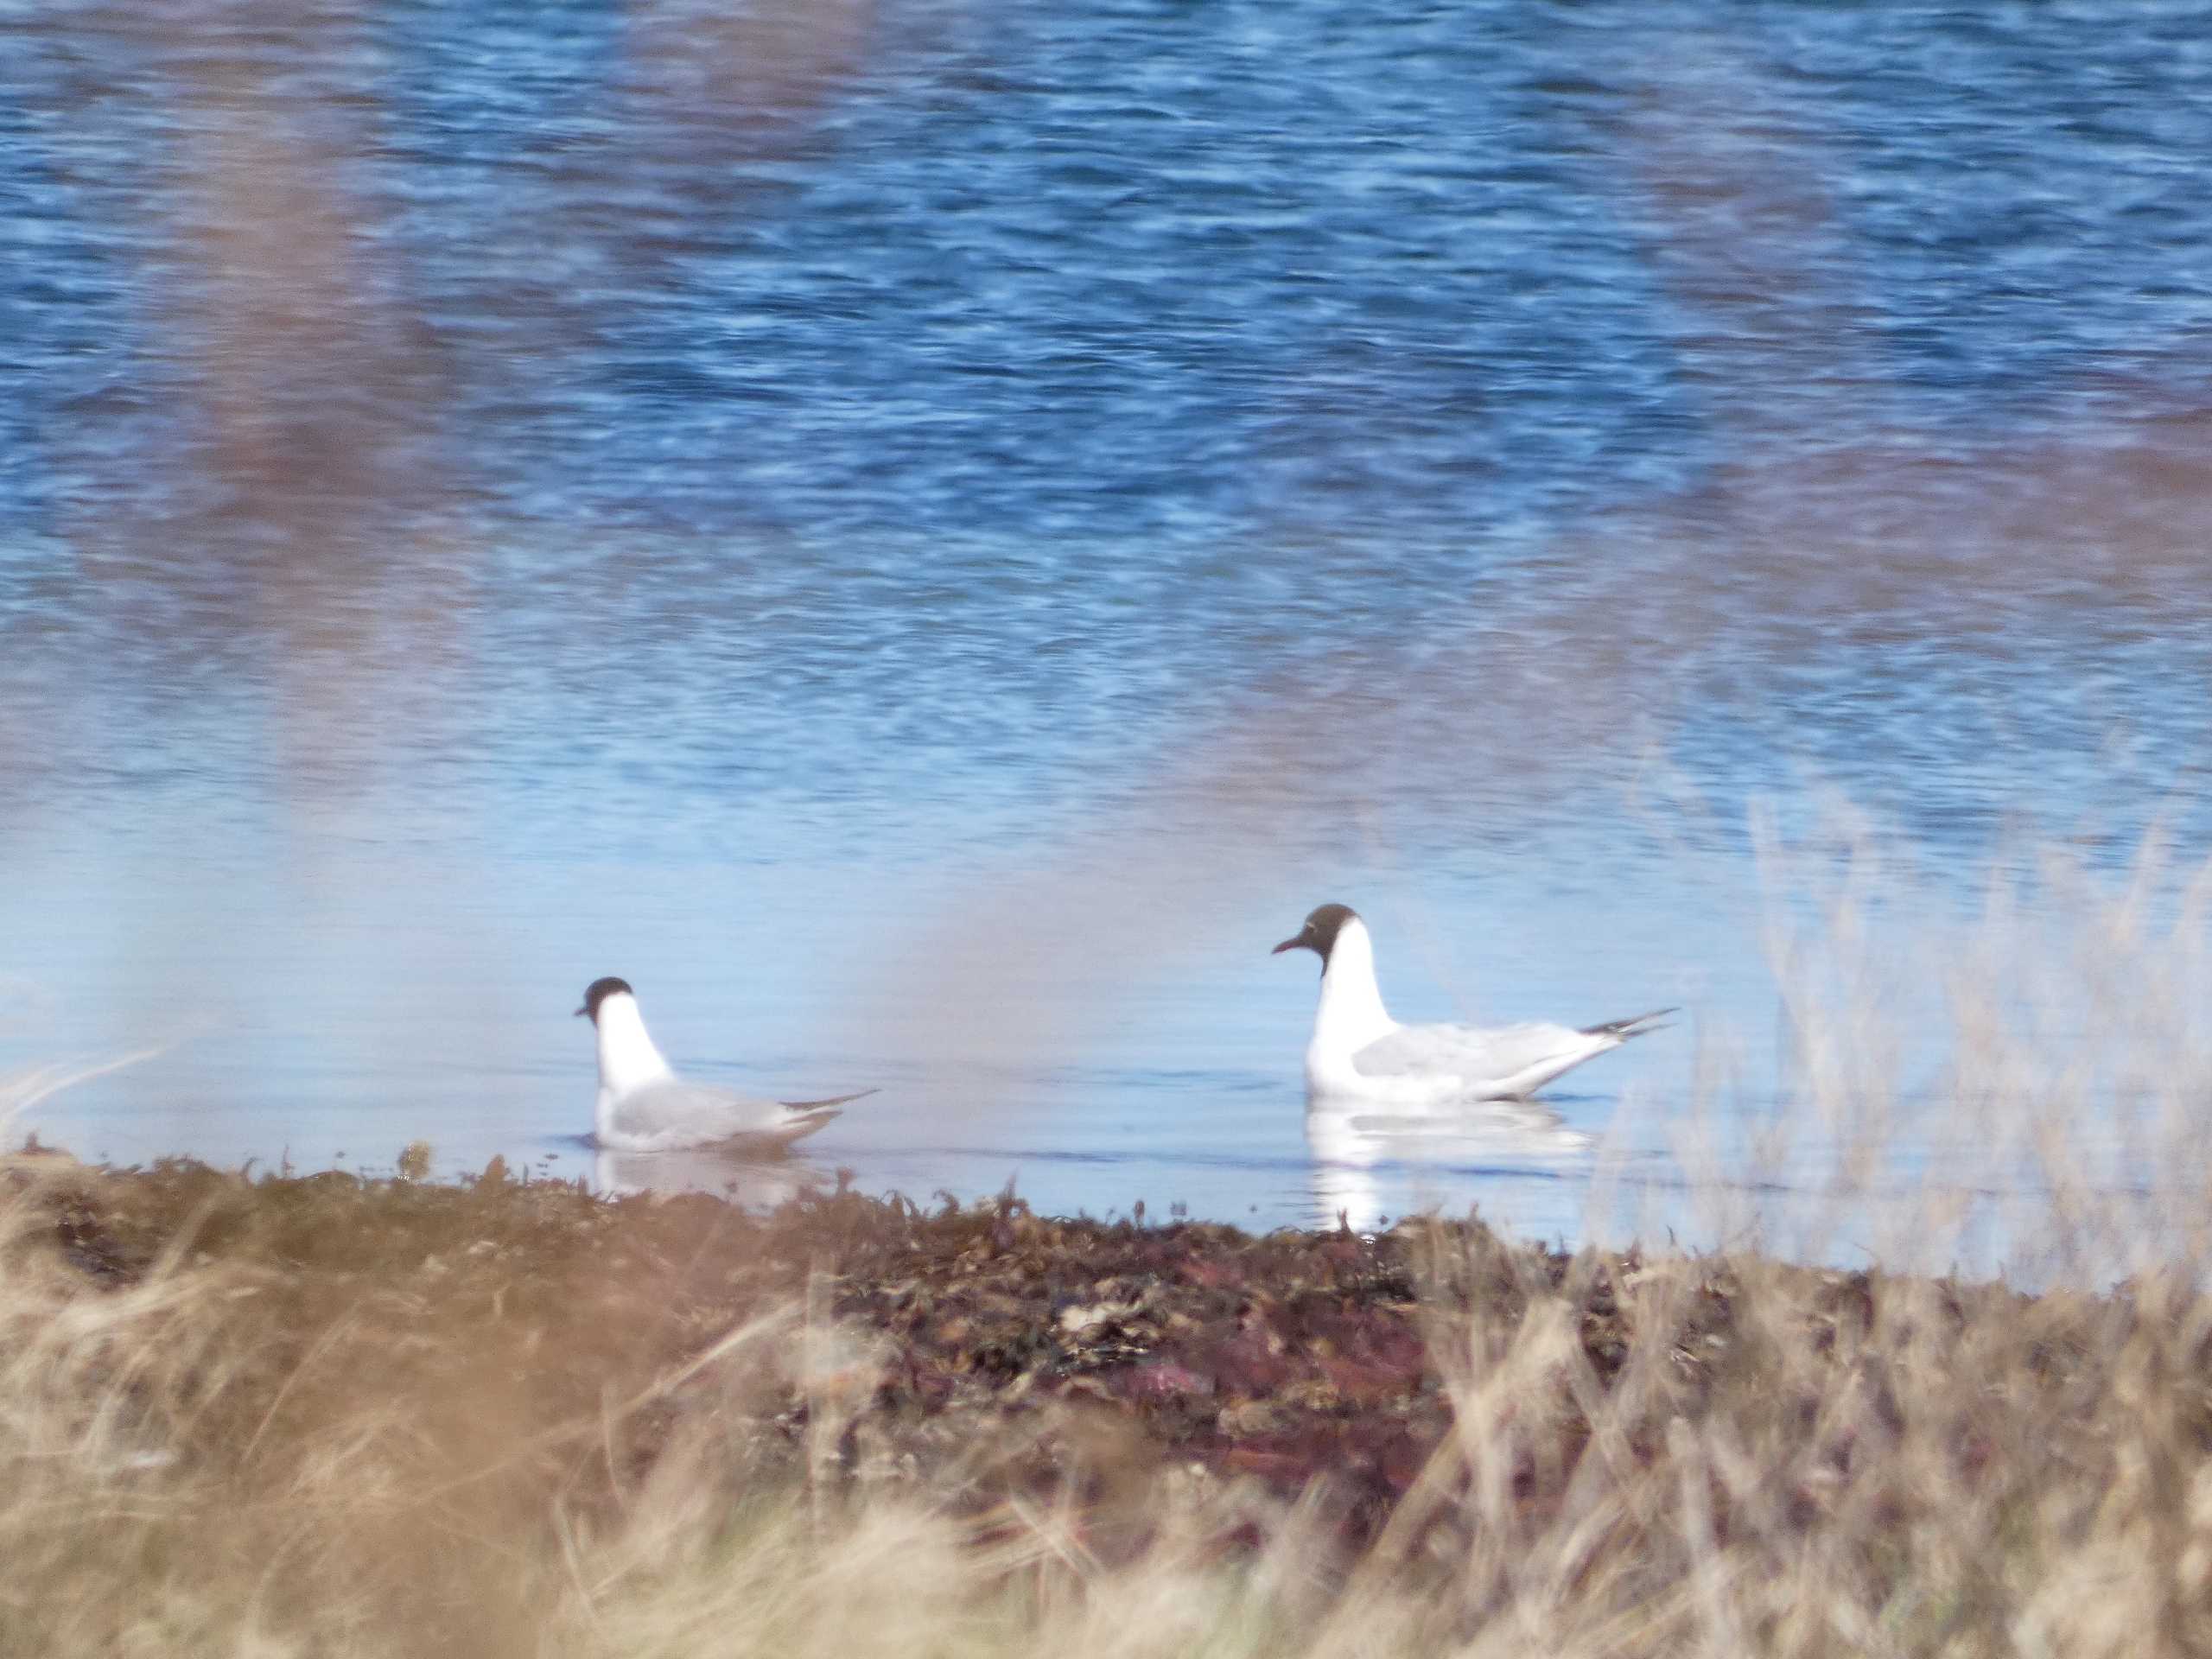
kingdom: Animalia
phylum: Chordata
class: Aves
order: Charadriiformes
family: Laridae
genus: Chroicocephalus
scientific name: Chroicocephalus ridibundus
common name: Hættemåge
